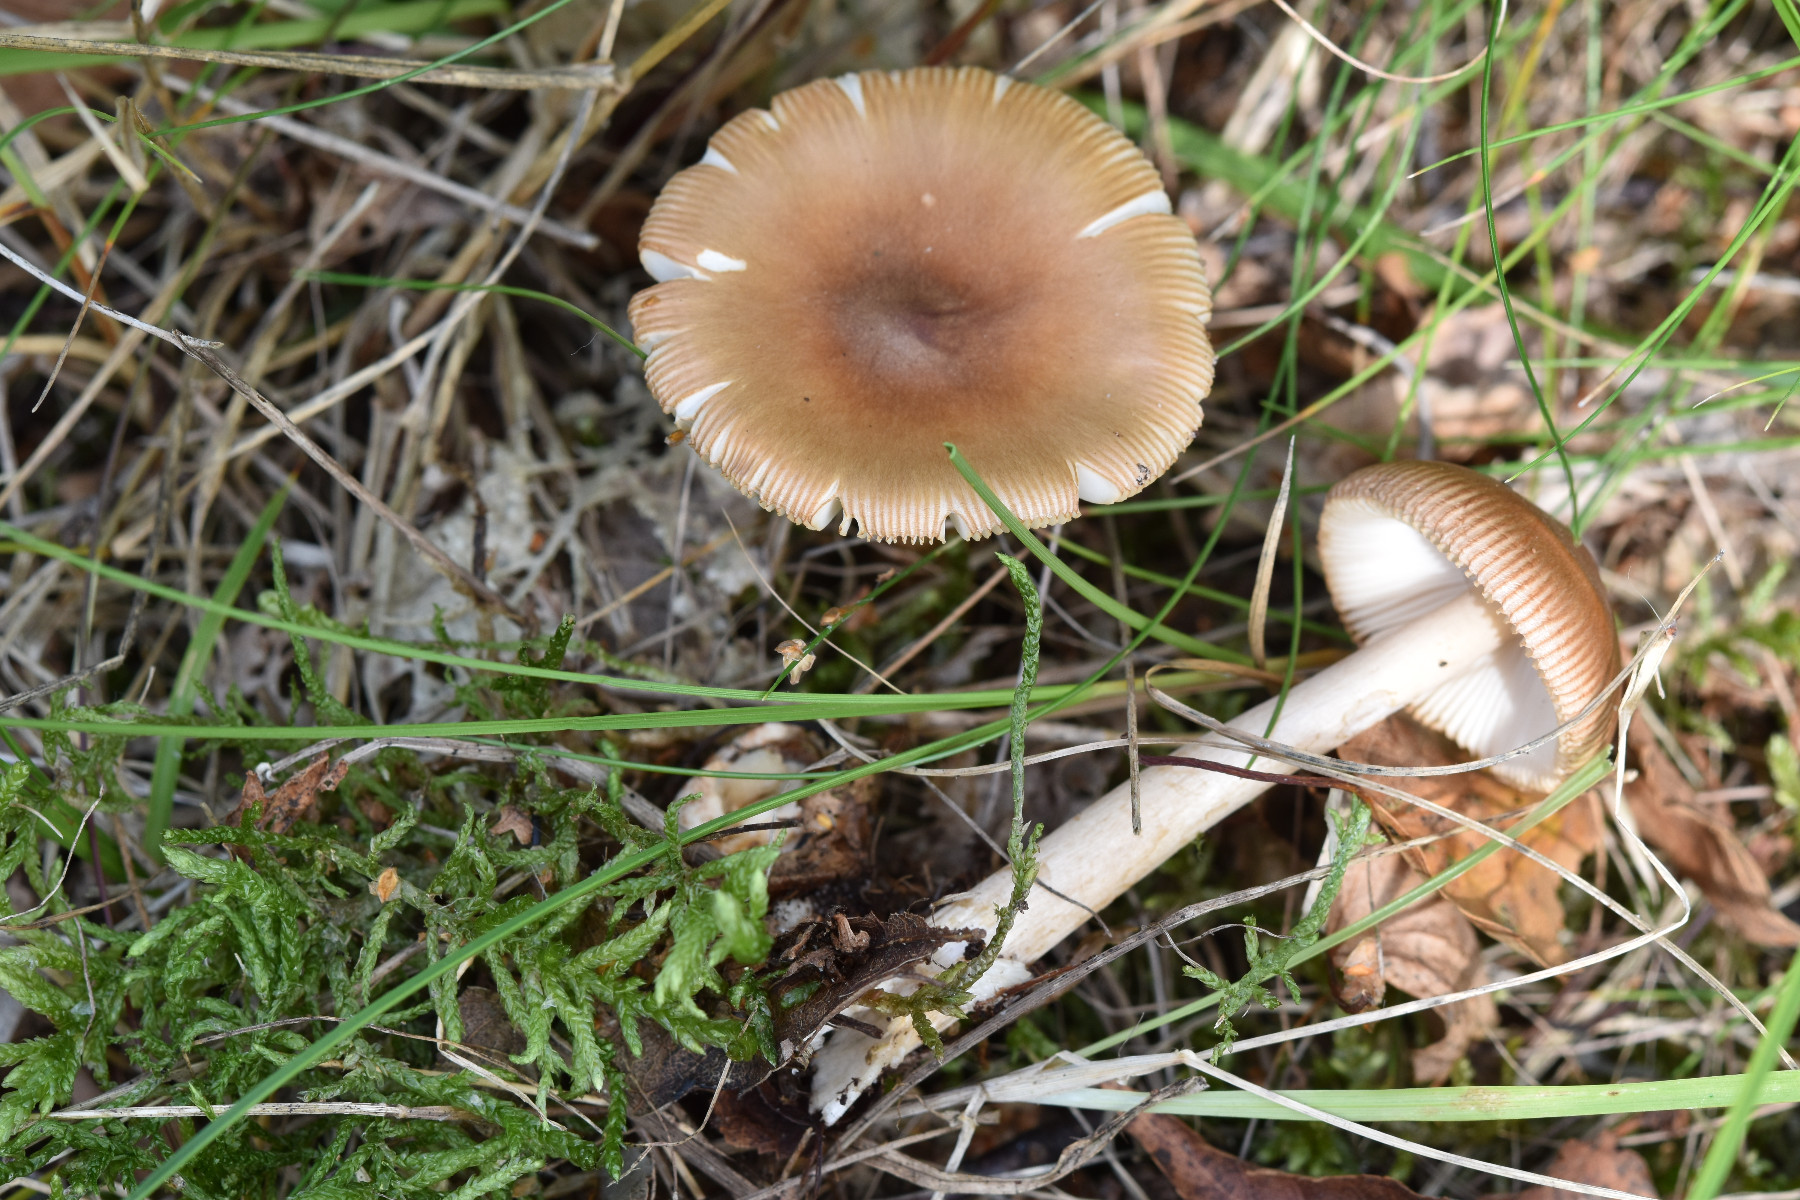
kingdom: Fungi
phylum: Basidiomycota
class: Agaricomycetes
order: Agaricales
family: Amanitaceae
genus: Amanita
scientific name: Amanita fulva
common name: brun kam-fluesvamp
